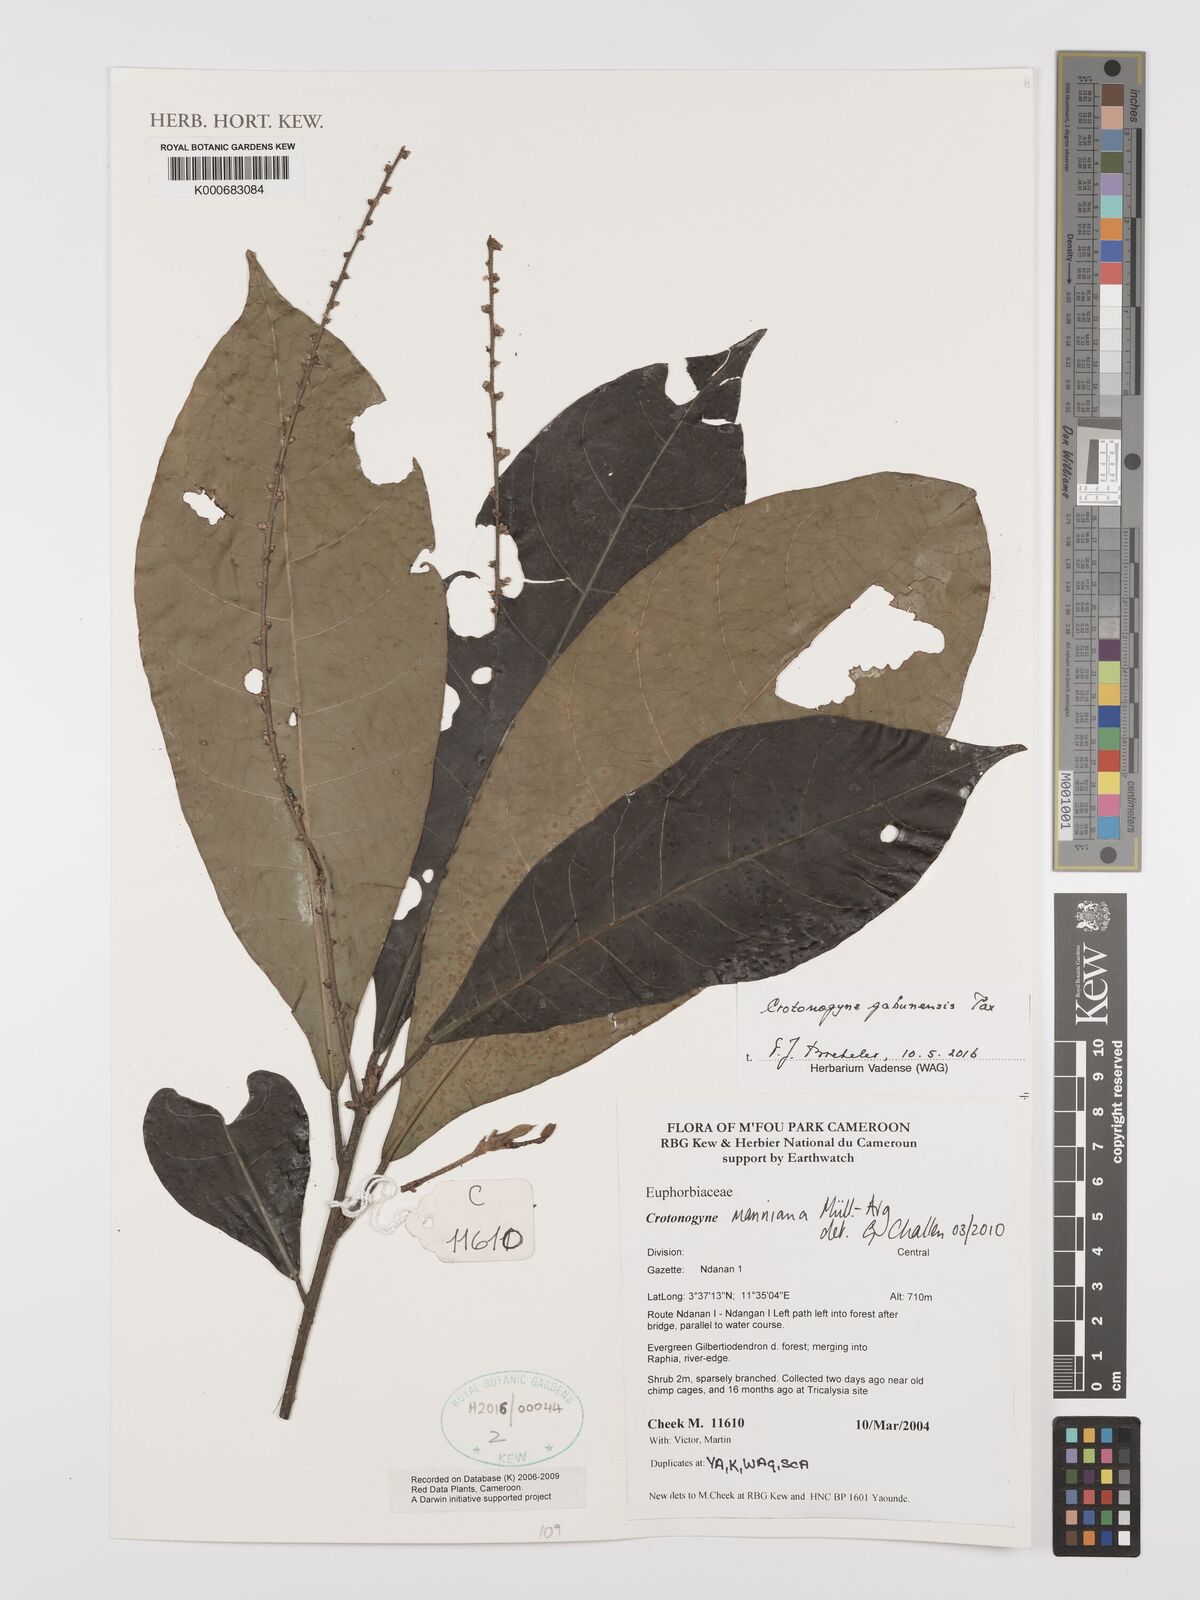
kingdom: Plantae
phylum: Tracheophyta
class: Magnoliopsida
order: Malpighiales
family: Euphorbiaceae
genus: Crotonogyne
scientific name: Crotonogyne
